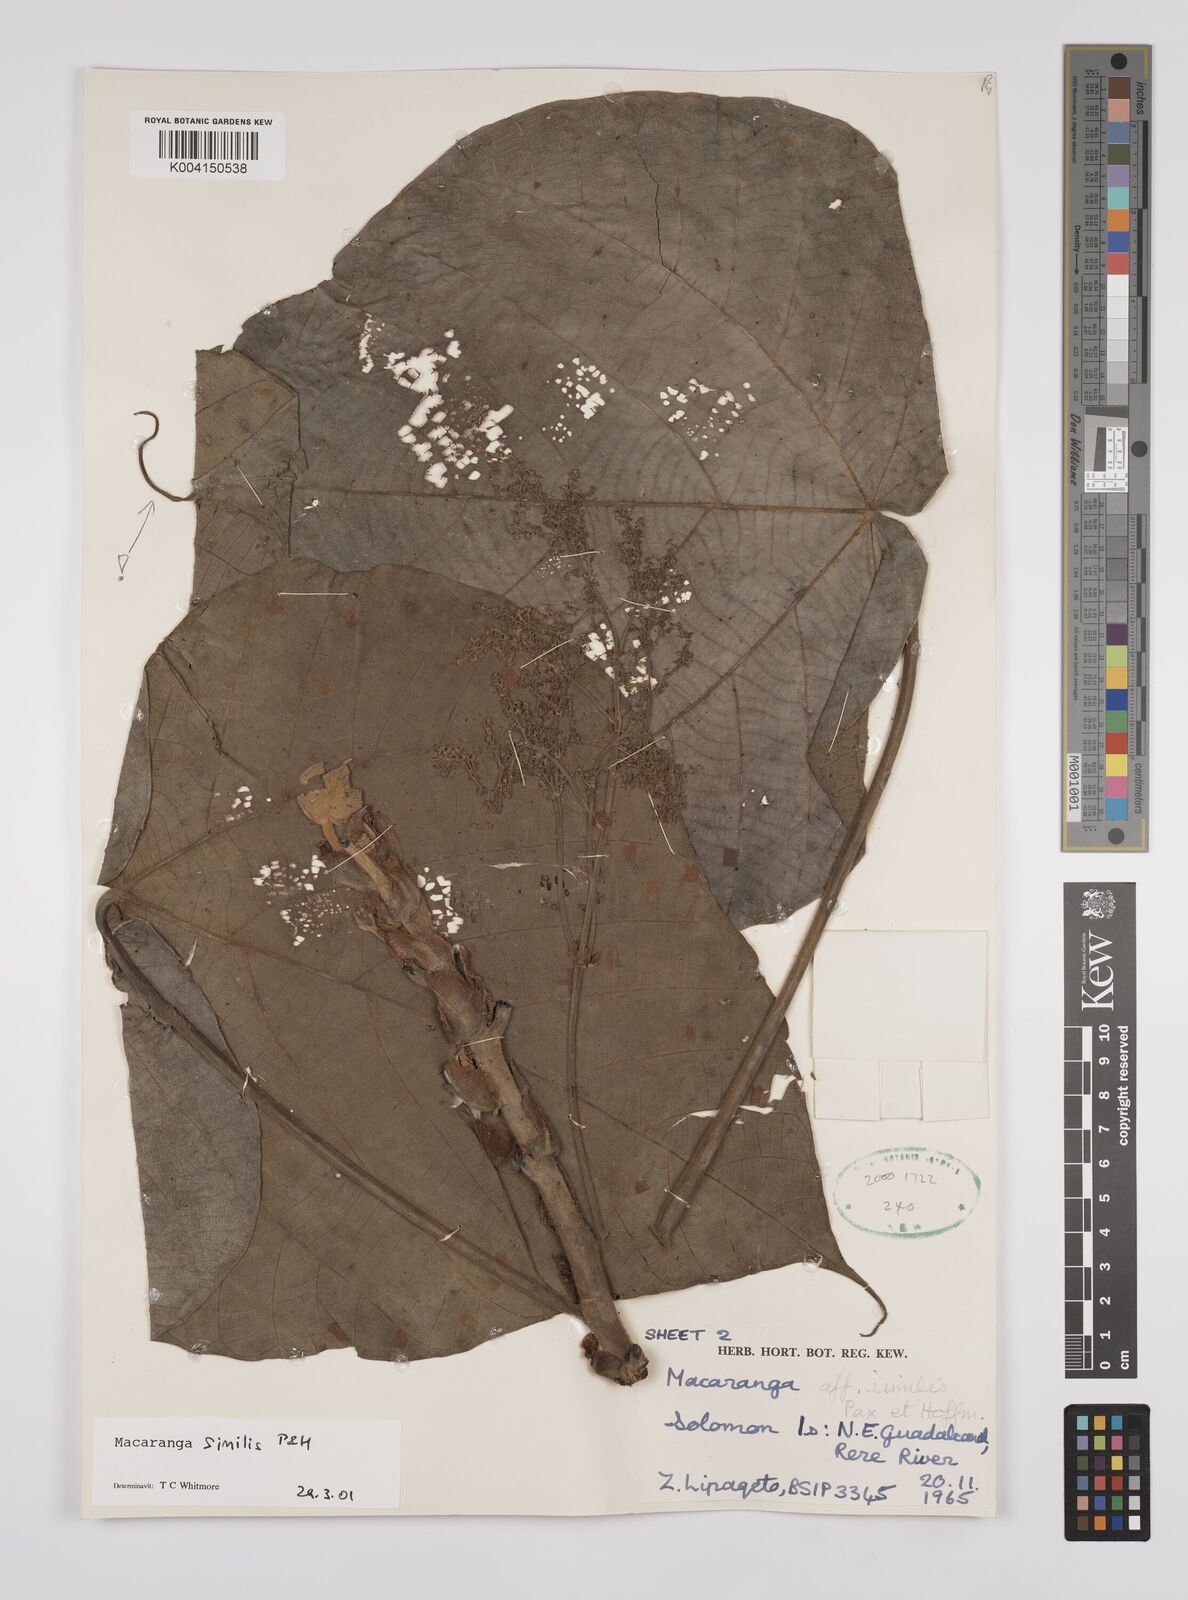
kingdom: Plantae
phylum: Tracheophyta
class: Magnoliopsida
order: Malpighiales
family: Euphorbiaceae
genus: Macaranga
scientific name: Macaranga similis
